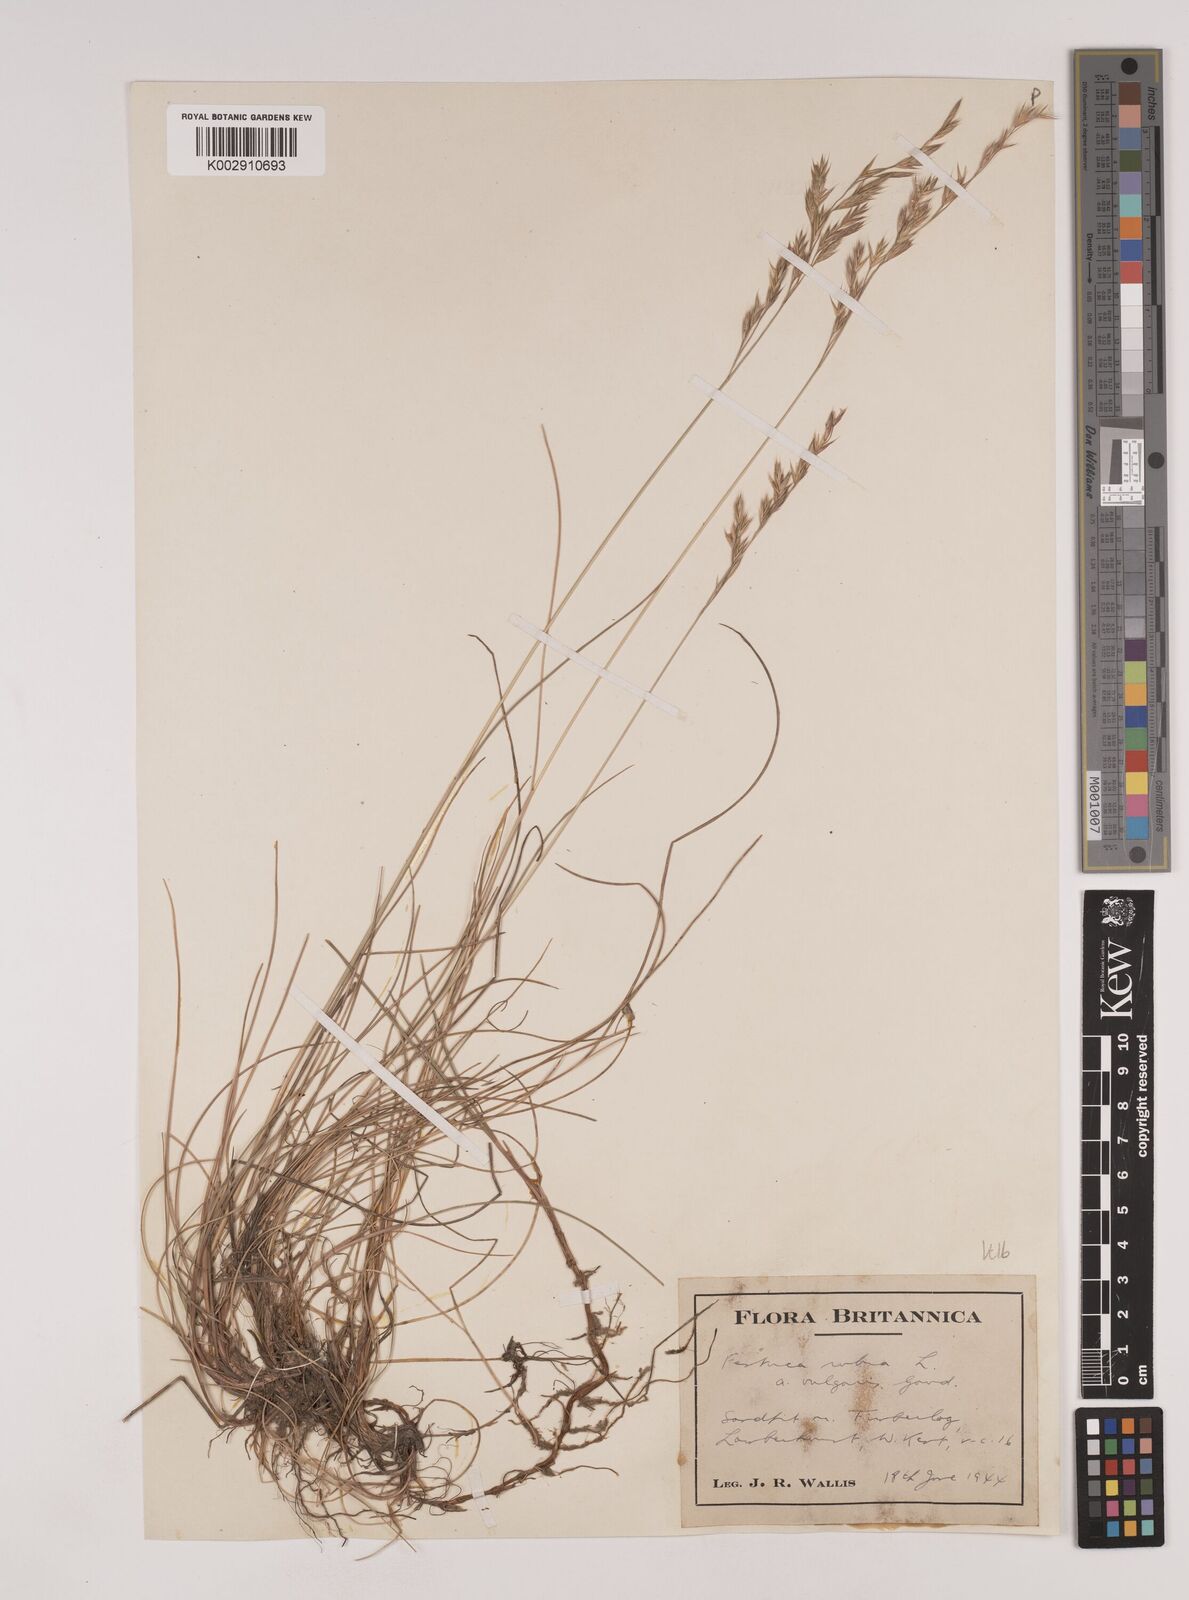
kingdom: Plantae
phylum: Tracheophyta
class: Liliopsida
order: Poales
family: Poaceae
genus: Festuca
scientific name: Festuca rubra
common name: Red fescue
